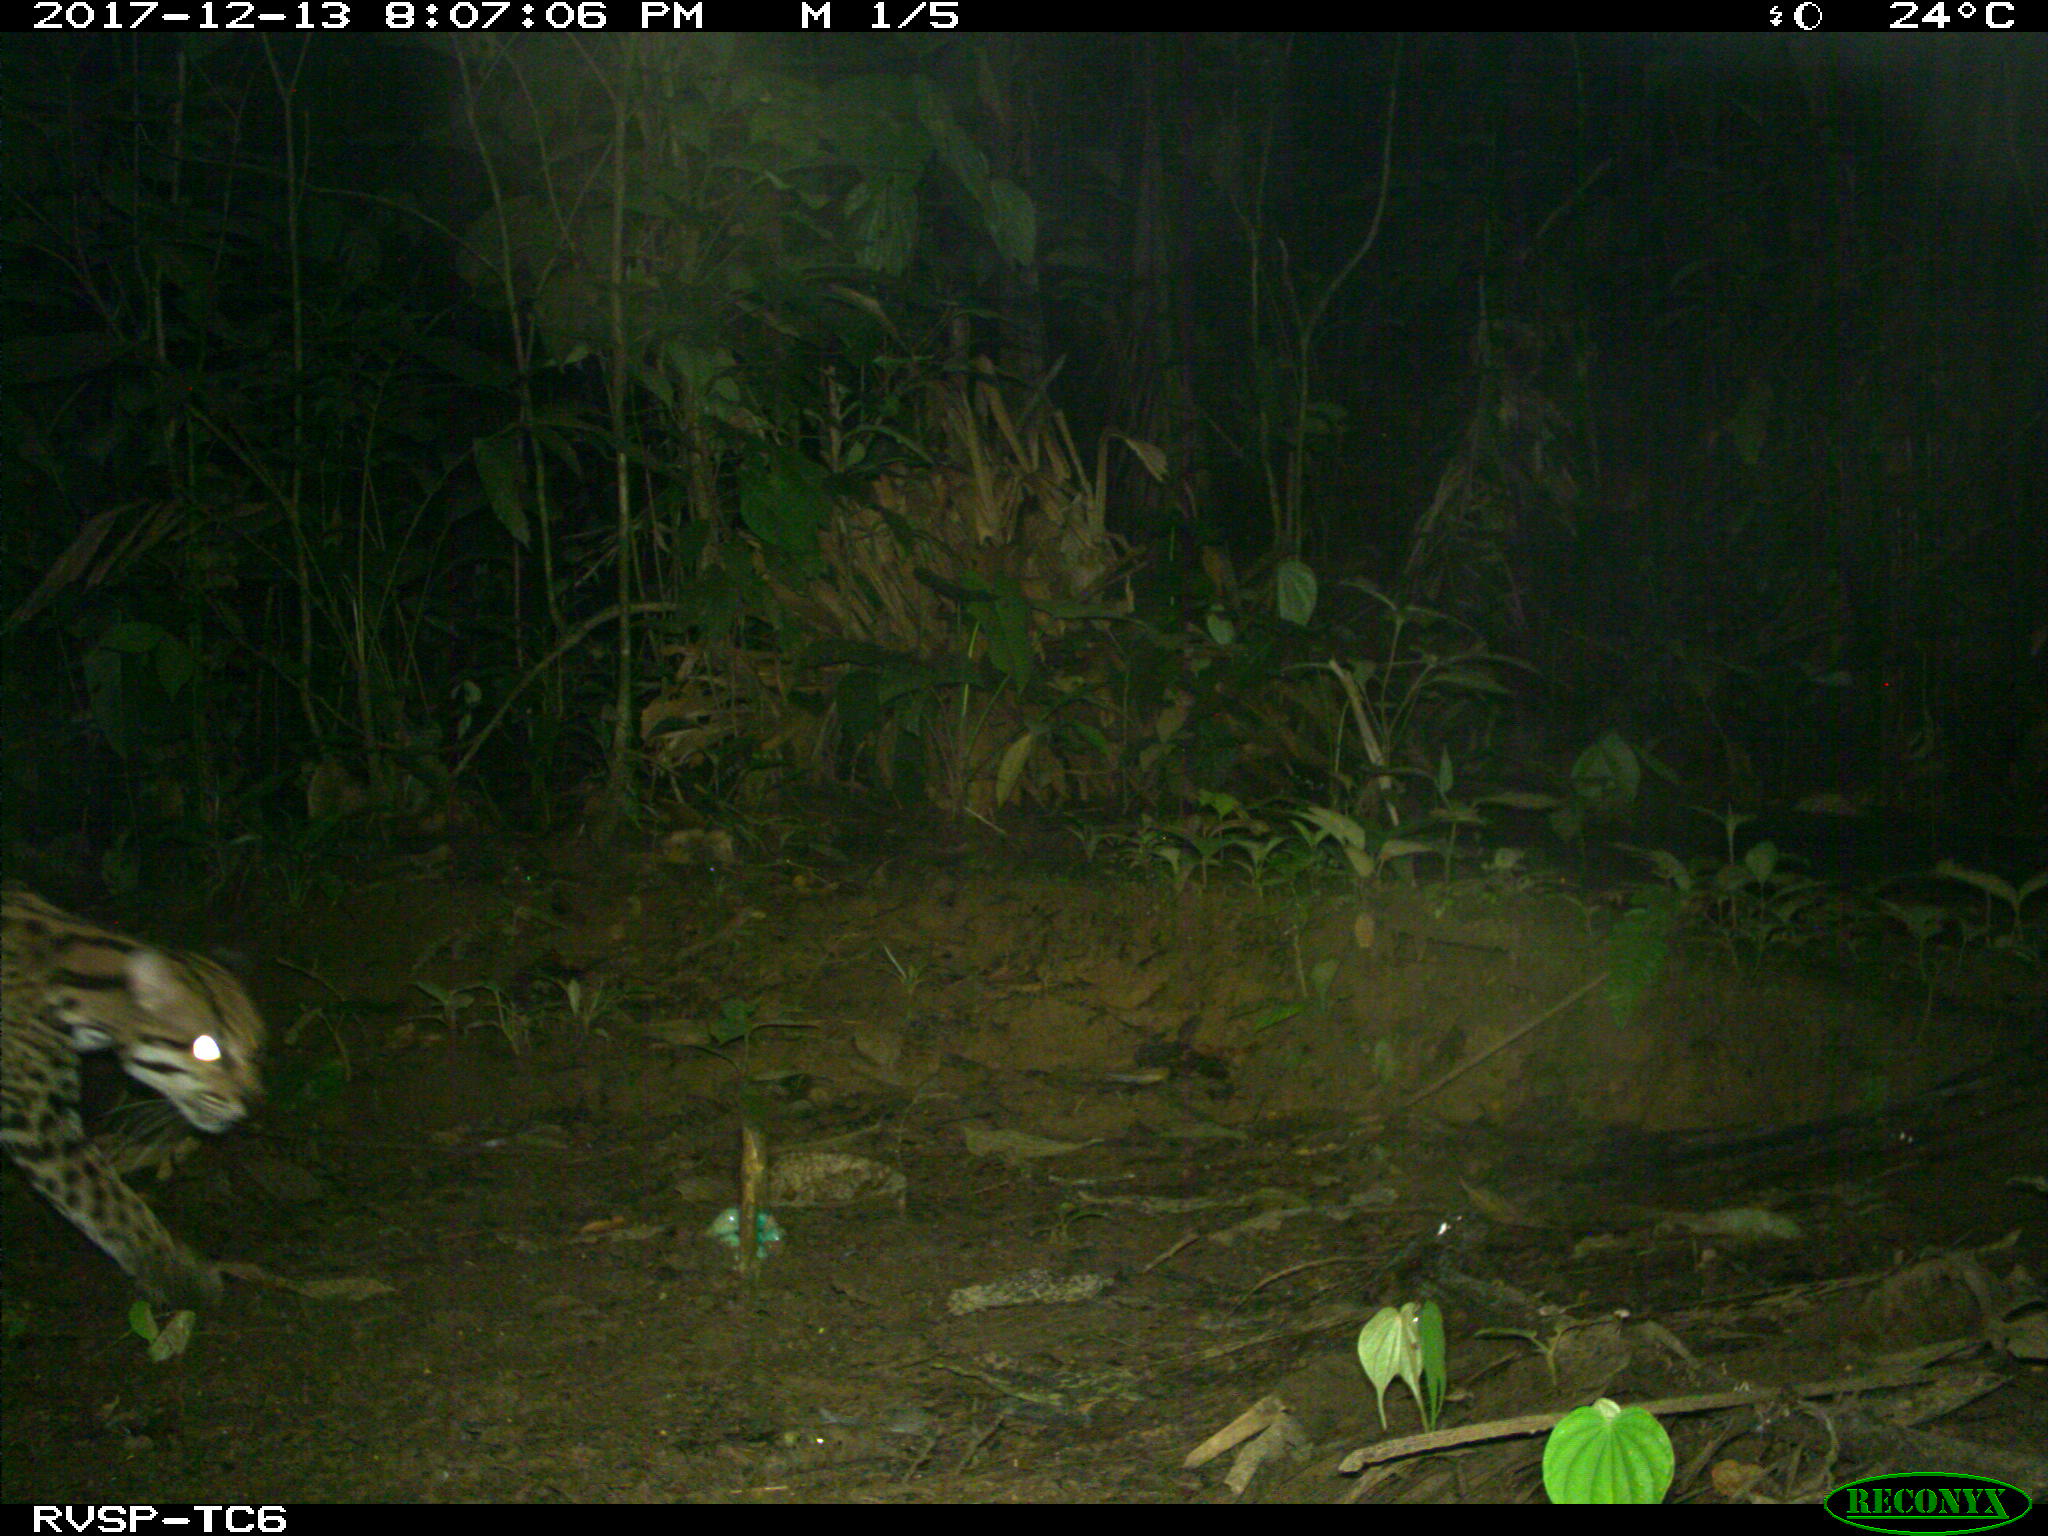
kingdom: Animalia
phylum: Chordata
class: Mammalia
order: Carnivora
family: Felidae
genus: Leopardus
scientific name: Leopardus pardalis
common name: Ocelot
